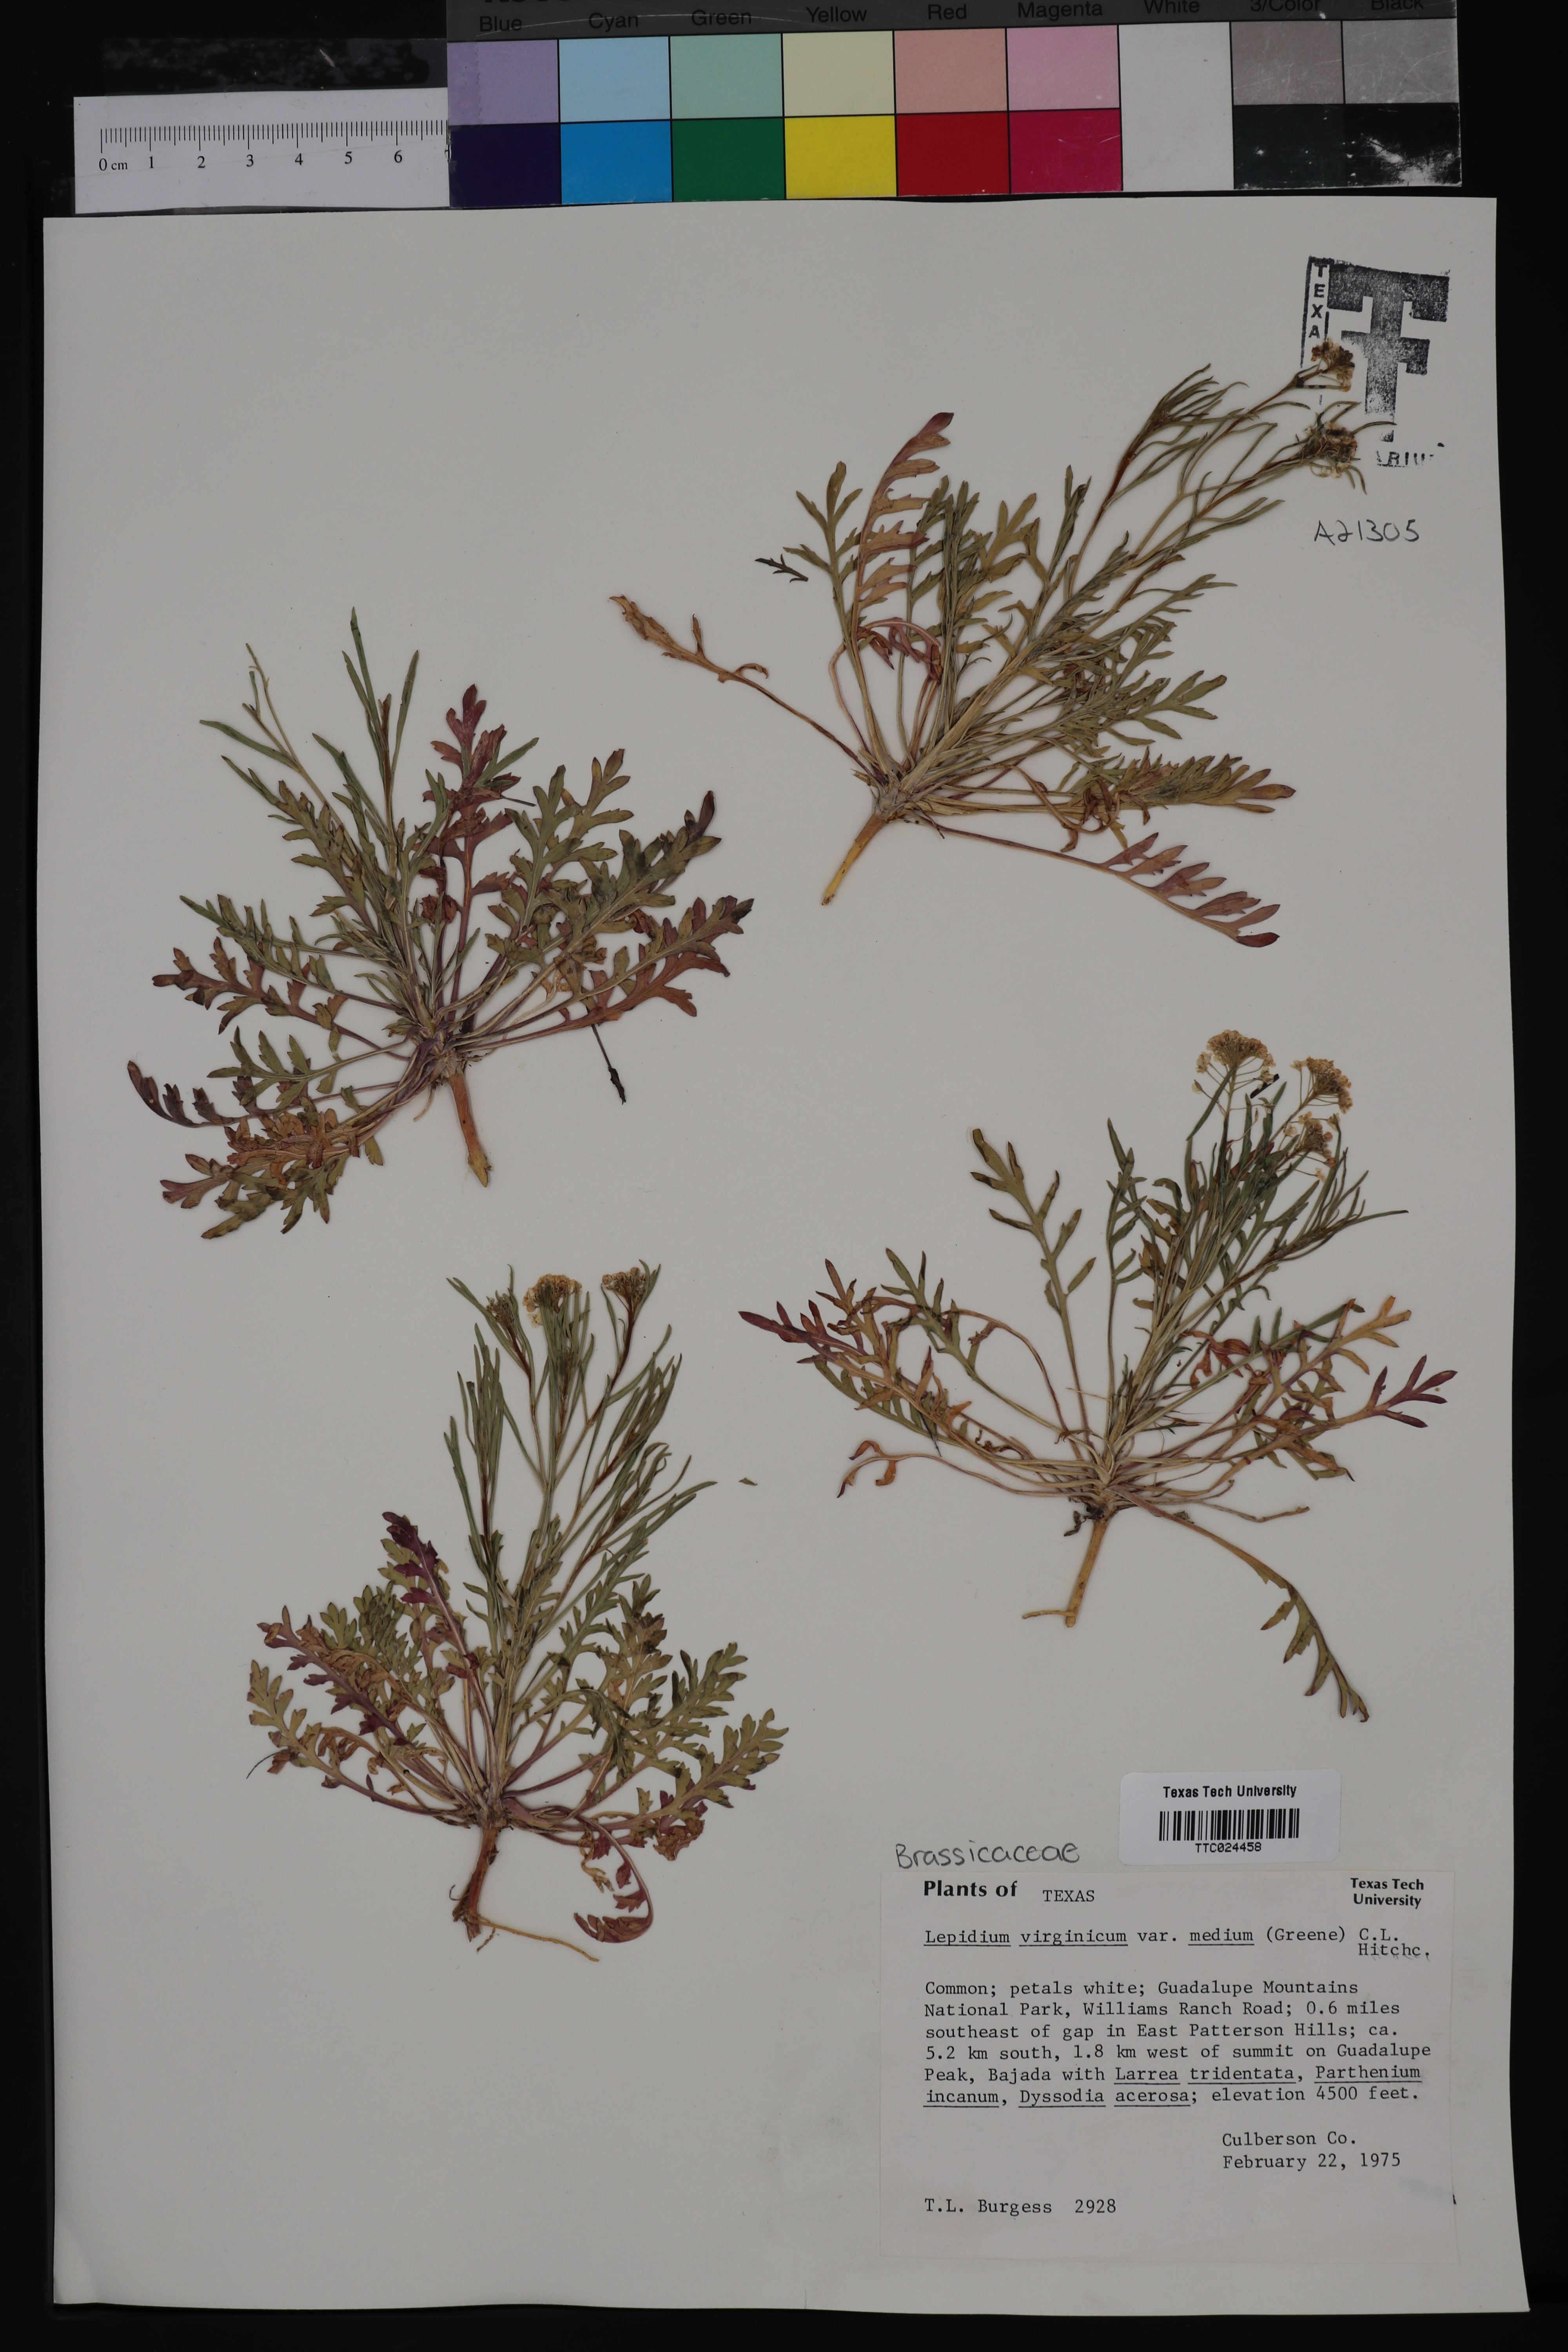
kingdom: Plantae
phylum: Tracheophyta
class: Magnoliopsida
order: Brassicales
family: Brassicaceae
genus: Lepidium
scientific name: Lepidium virginicum
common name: Least pepperwort
